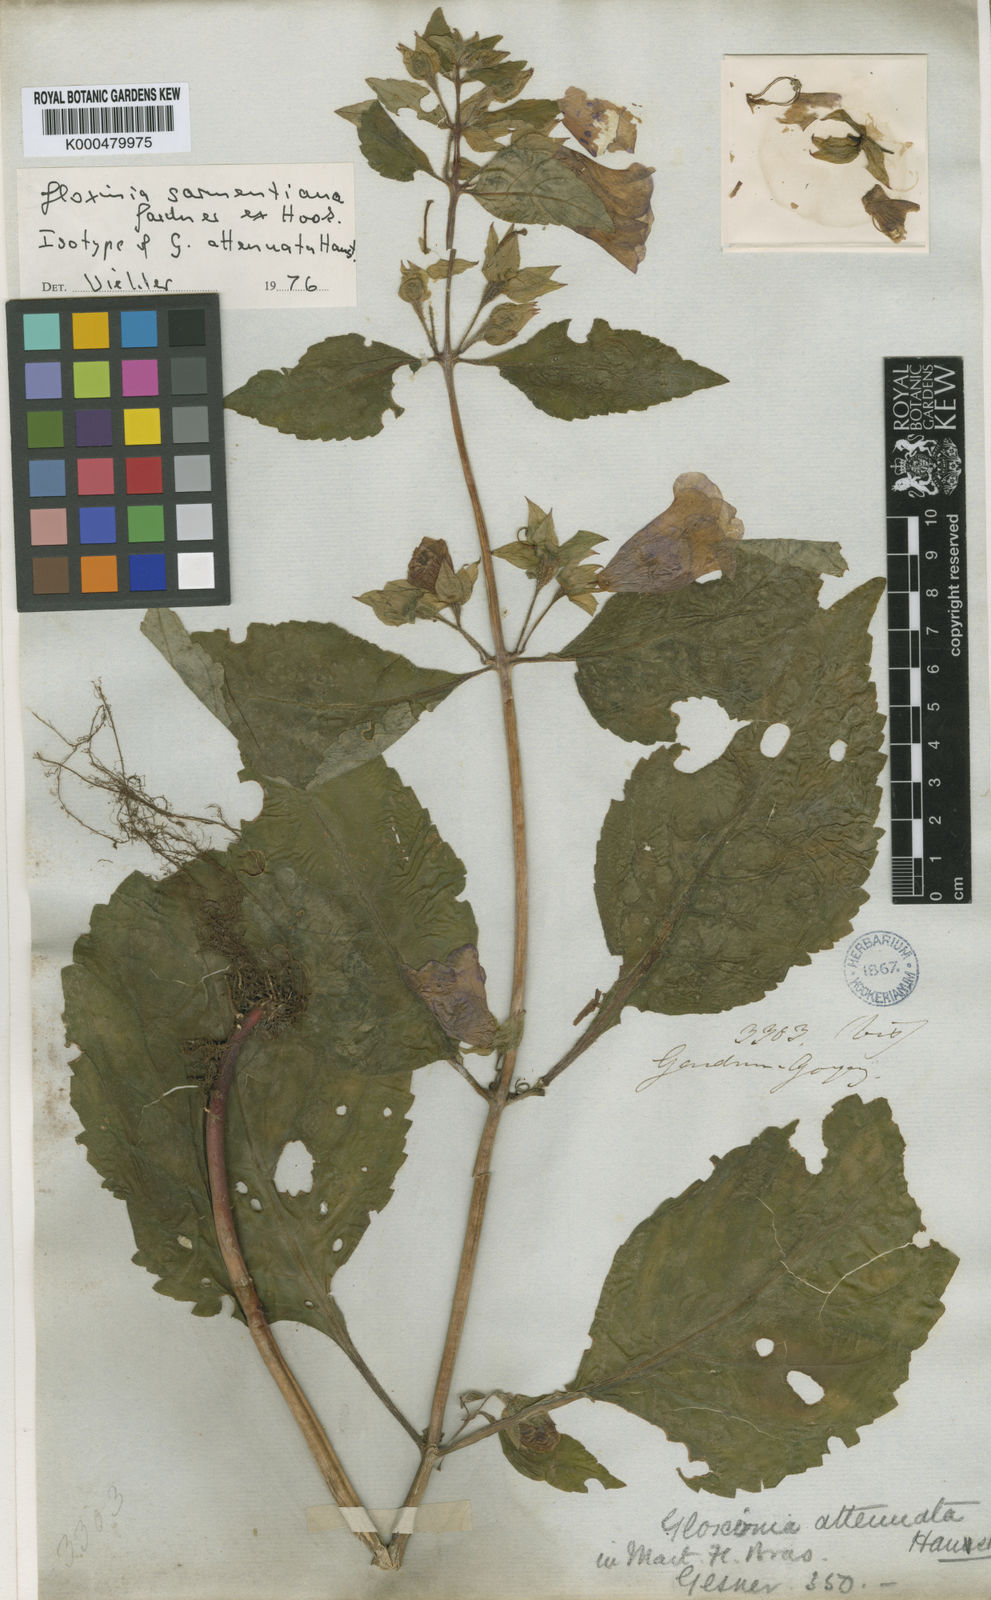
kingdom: Plantae
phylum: Tracheophyta
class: Magnoliopsida
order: Lamiales
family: Gesneriaceae
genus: Sphaerorrhiza
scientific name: Sphaerorrhiza sarmentiana
